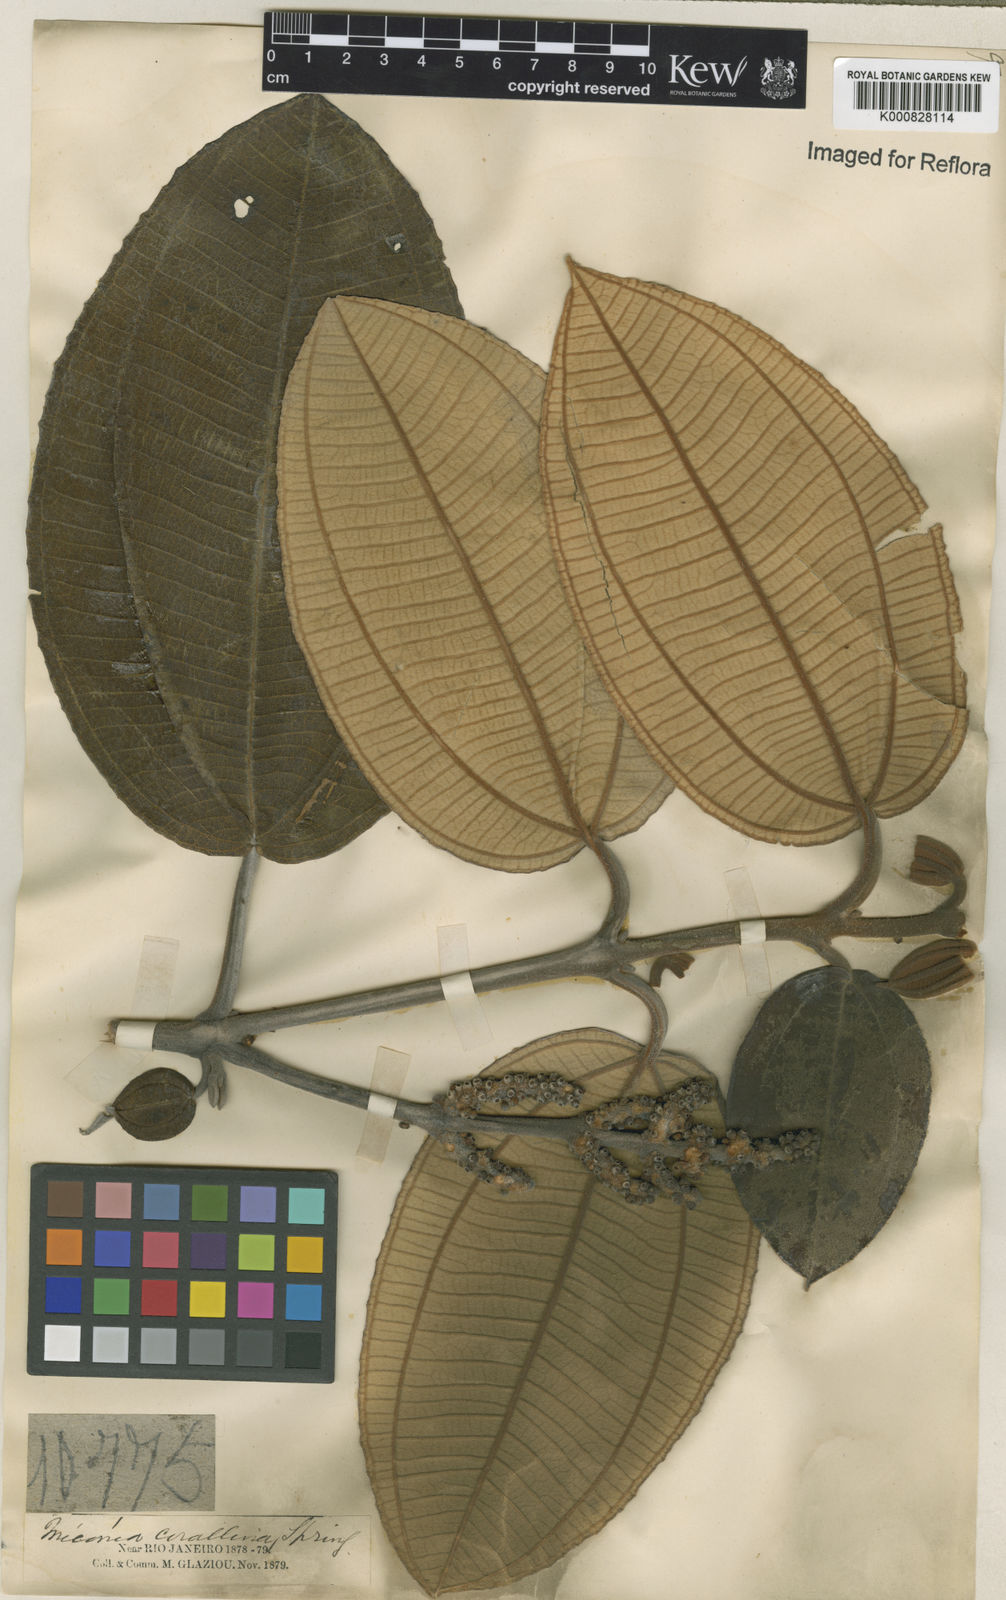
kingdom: Plantae
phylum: Tracheophyta
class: Magnoliopsida
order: Myrtales
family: Melastomataceae
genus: Miconia
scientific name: Miconia
